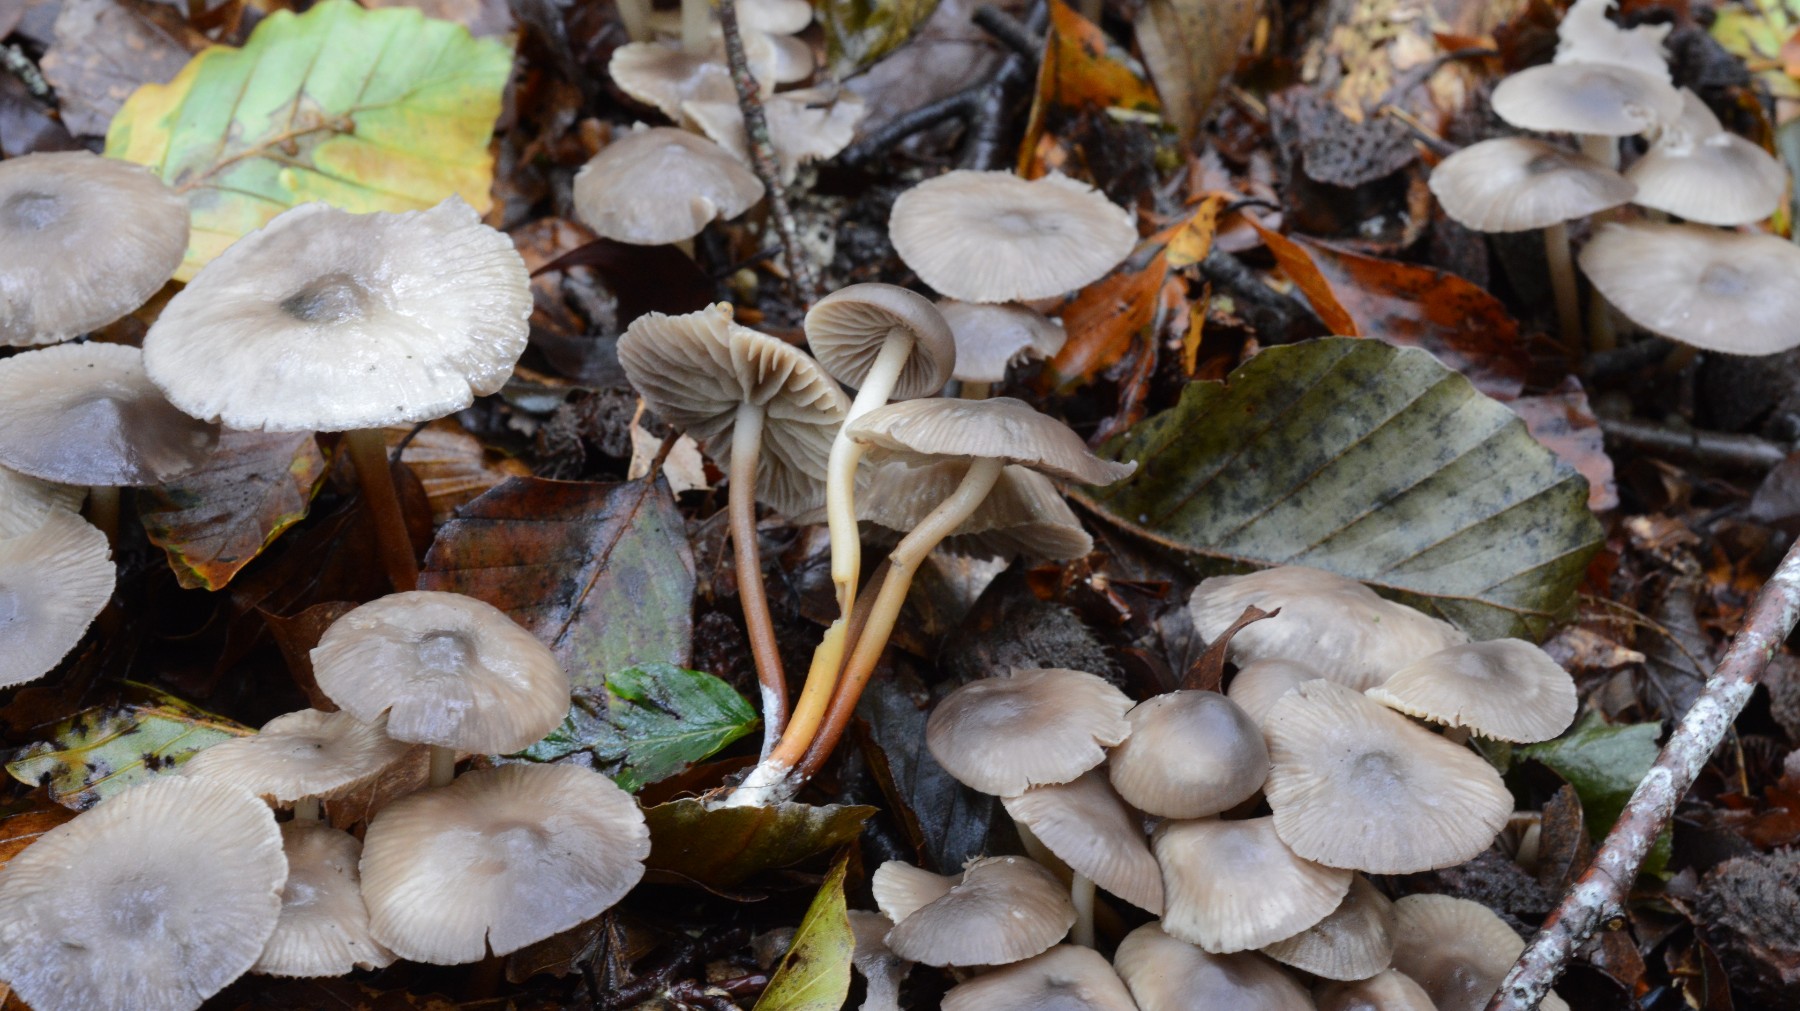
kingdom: Fungi
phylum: Basidiomycota
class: Agaricomycetes
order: Agaricales
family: Marasmiaceae
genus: Marasmius
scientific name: Marasmius wynneae
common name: hvælvet bruskhat
